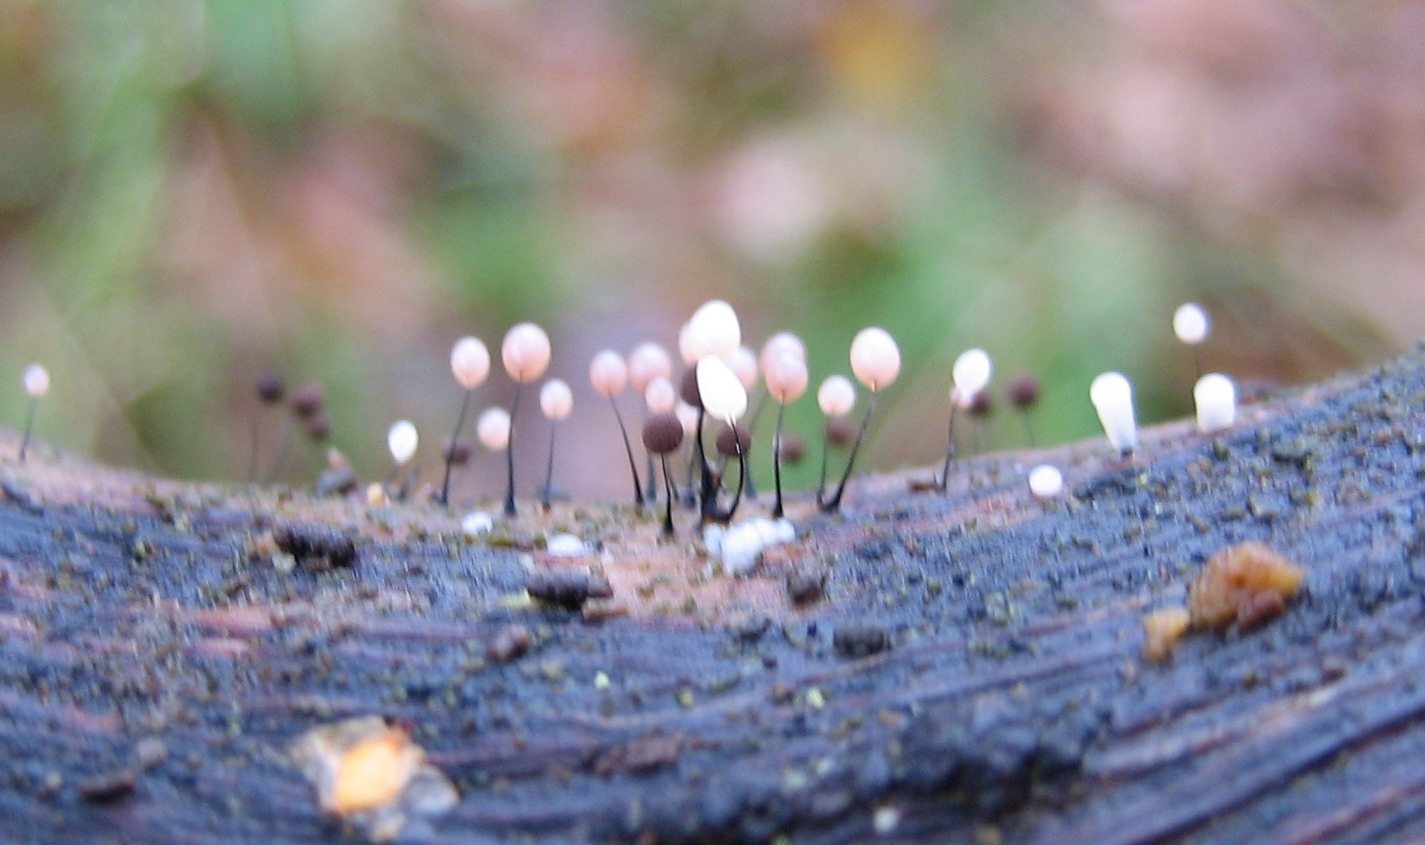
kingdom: Protozoa
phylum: Mycetozoa
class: Myxomycetes
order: Stemonitidales
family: Stemonitidaceae
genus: Comatricha
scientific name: Comatricha
